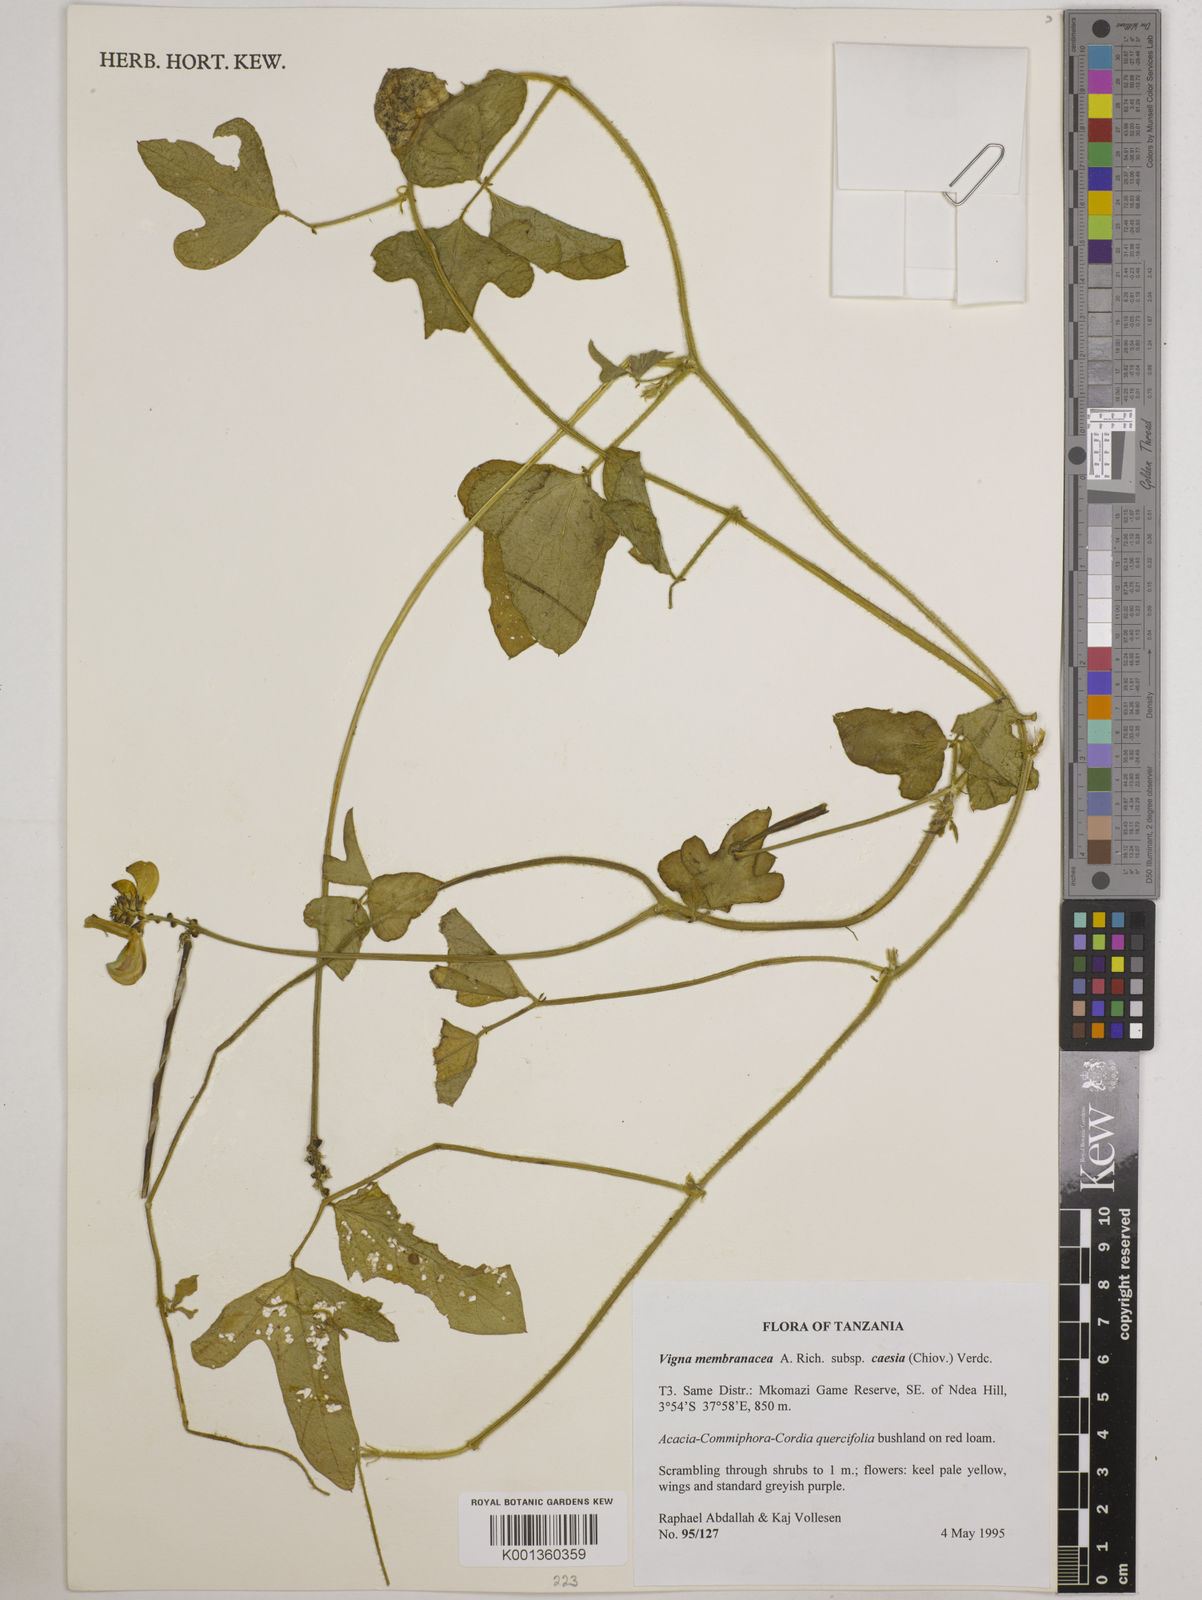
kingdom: Plantae
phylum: Tracheophyta
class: Magnoliopsida
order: Fabales
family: Fabaceae
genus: Vigna
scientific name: Vigna
